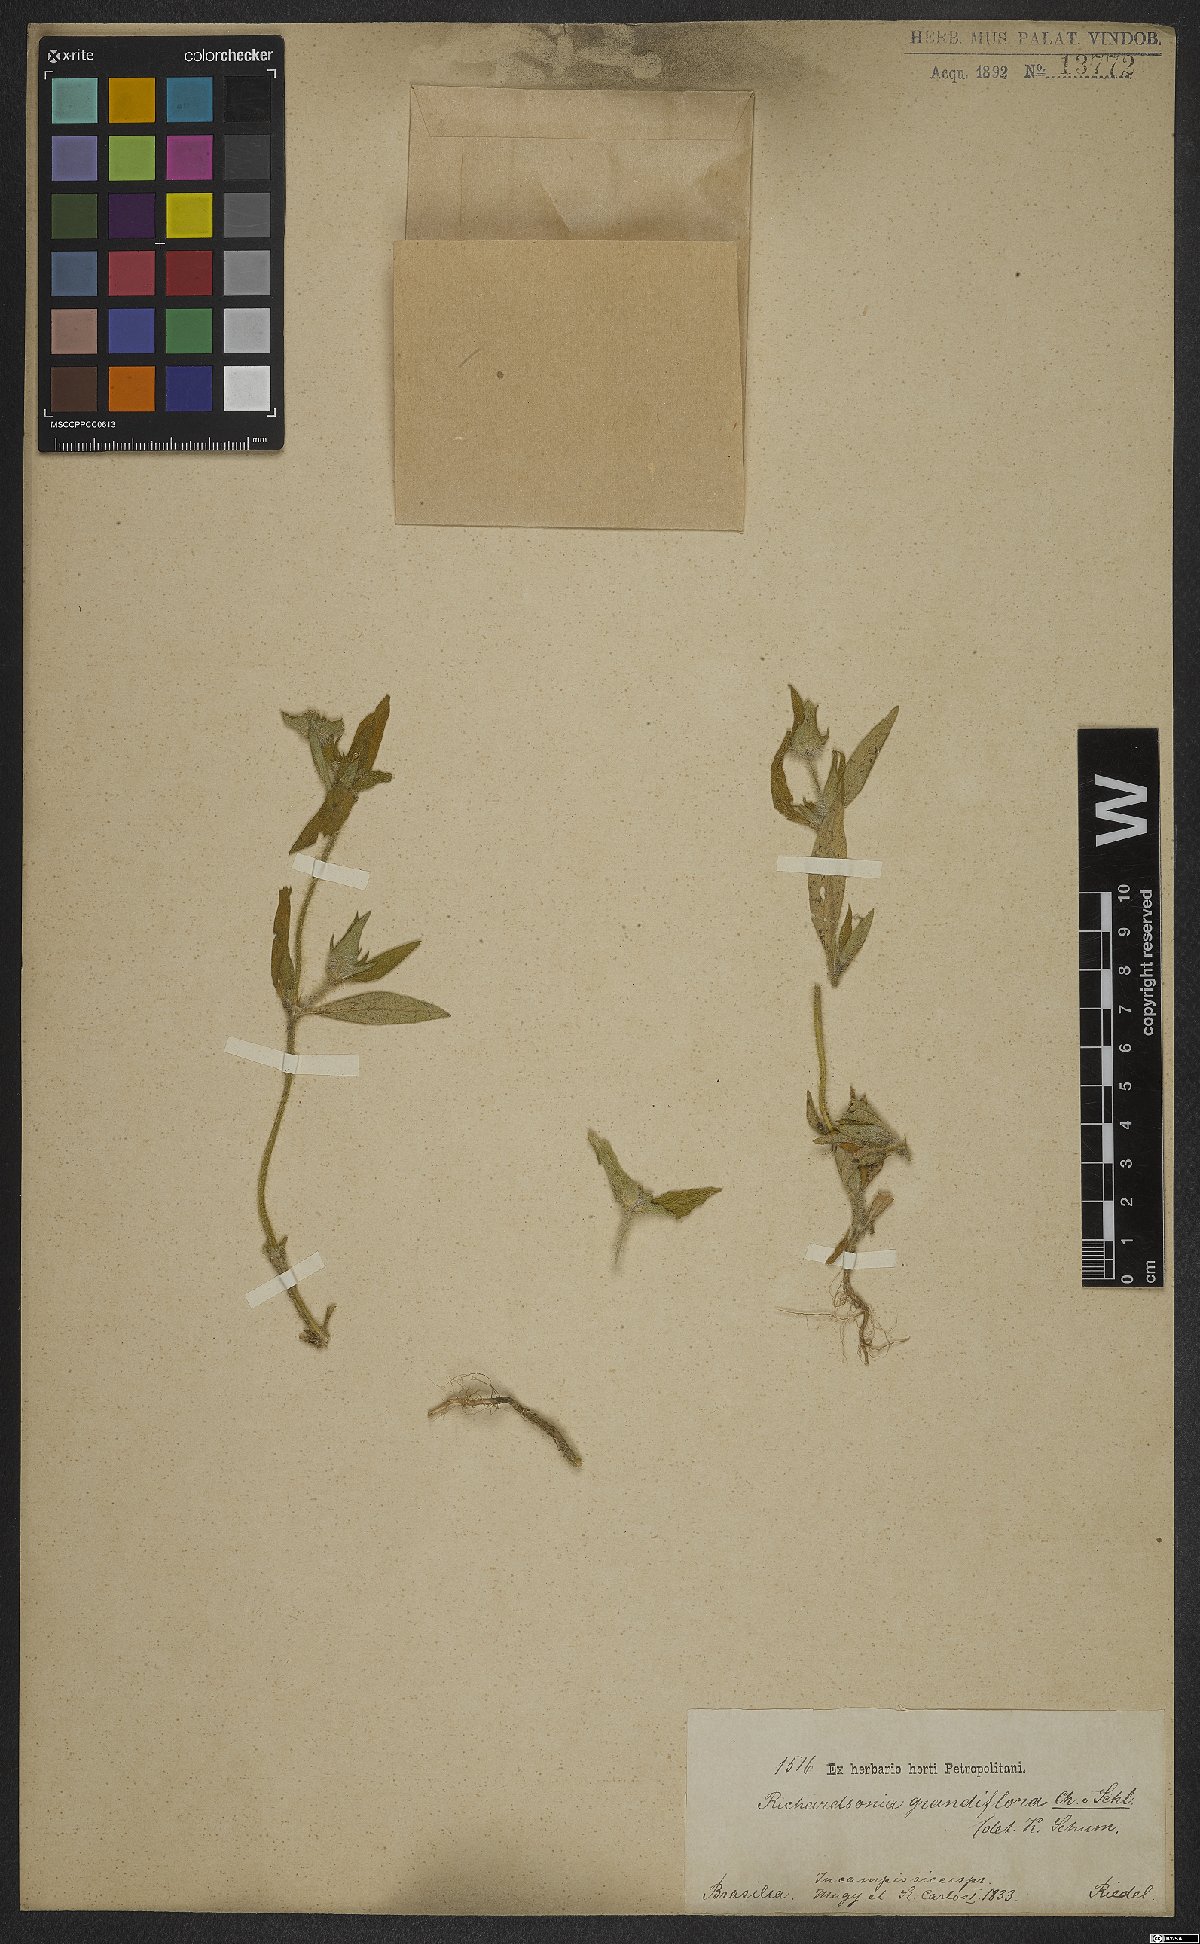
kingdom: Plantae
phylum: Tracheophyta
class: Magnoliopsida
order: Gentianales
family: Rubiaceae
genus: Richardia
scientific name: Richardia grandiflora
